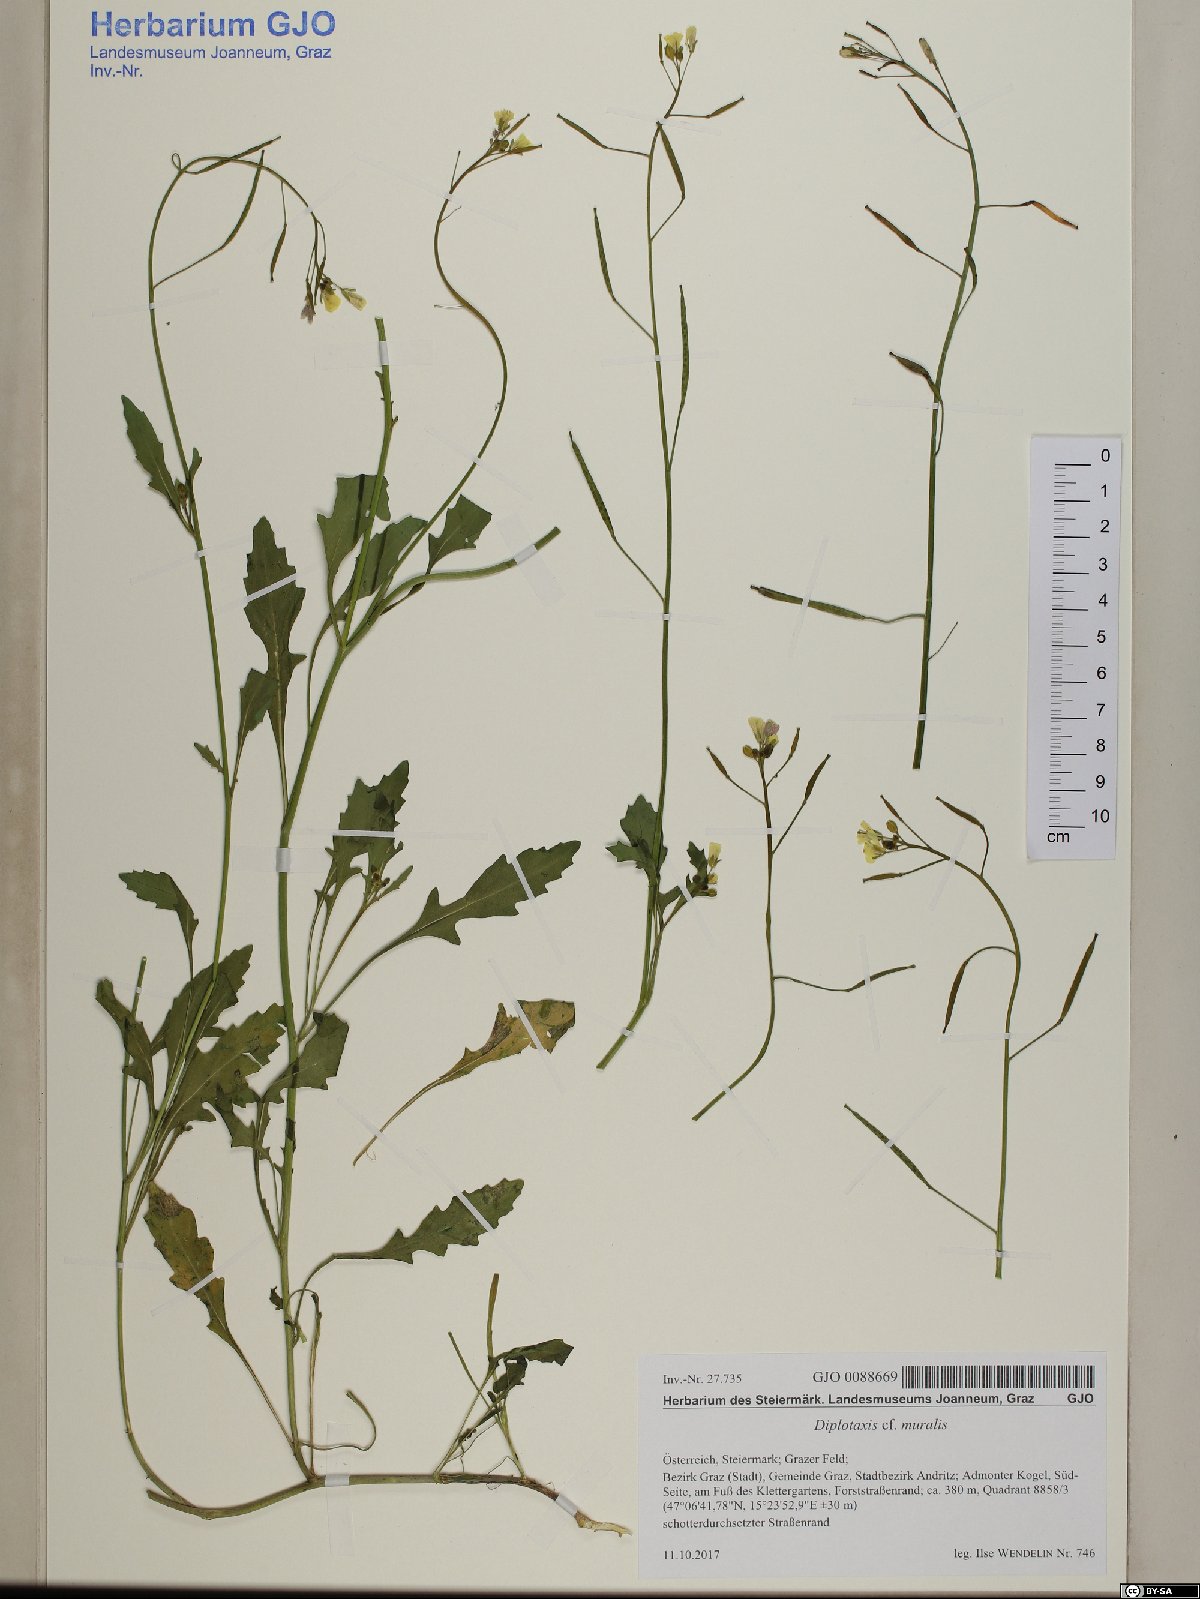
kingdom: Plantae
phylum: Tracheophyta
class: Magnoliopsida
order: Brassicales
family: Brassicaceae
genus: Diplotaxis
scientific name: Diplotaxis muralis
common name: Annual wall-rocket
